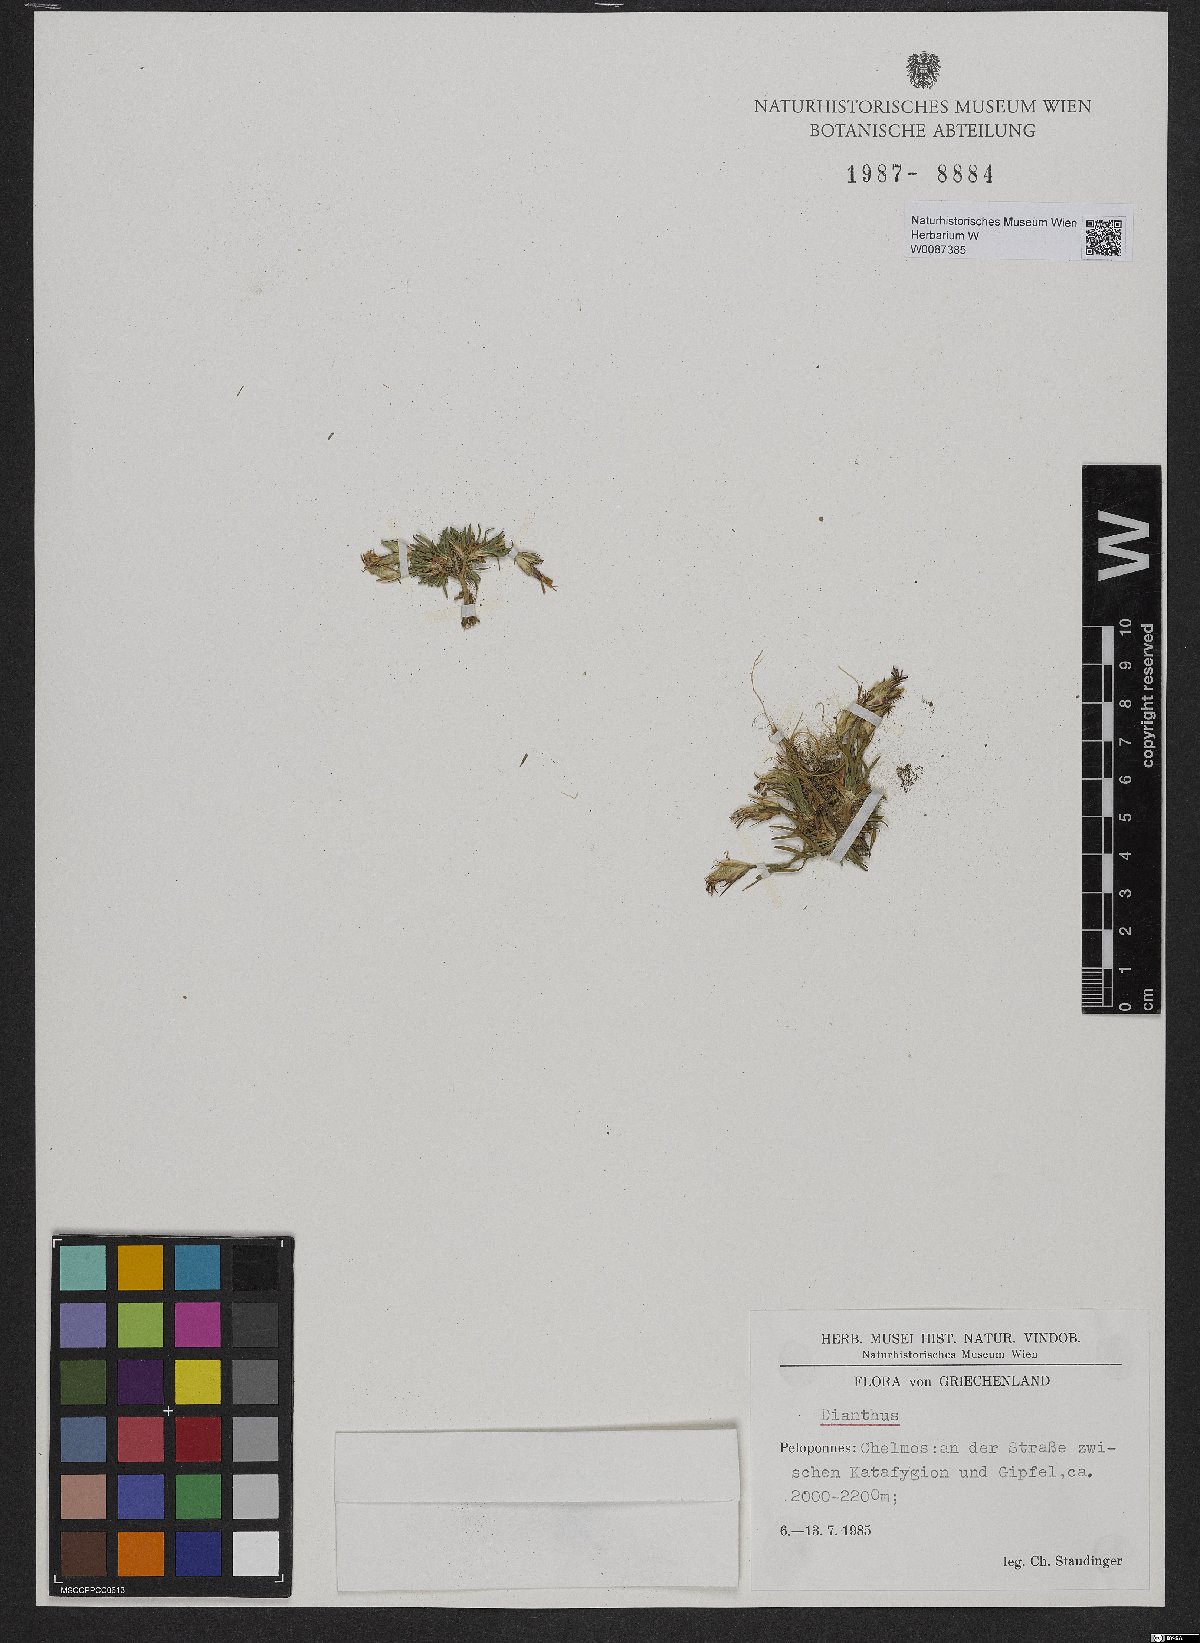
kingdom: Plantae
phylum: Tracheophyta
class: Magnoliopsida
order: Caryophyllales
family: Caryophyllaceae
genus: Dianthus
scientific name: Dianthus
